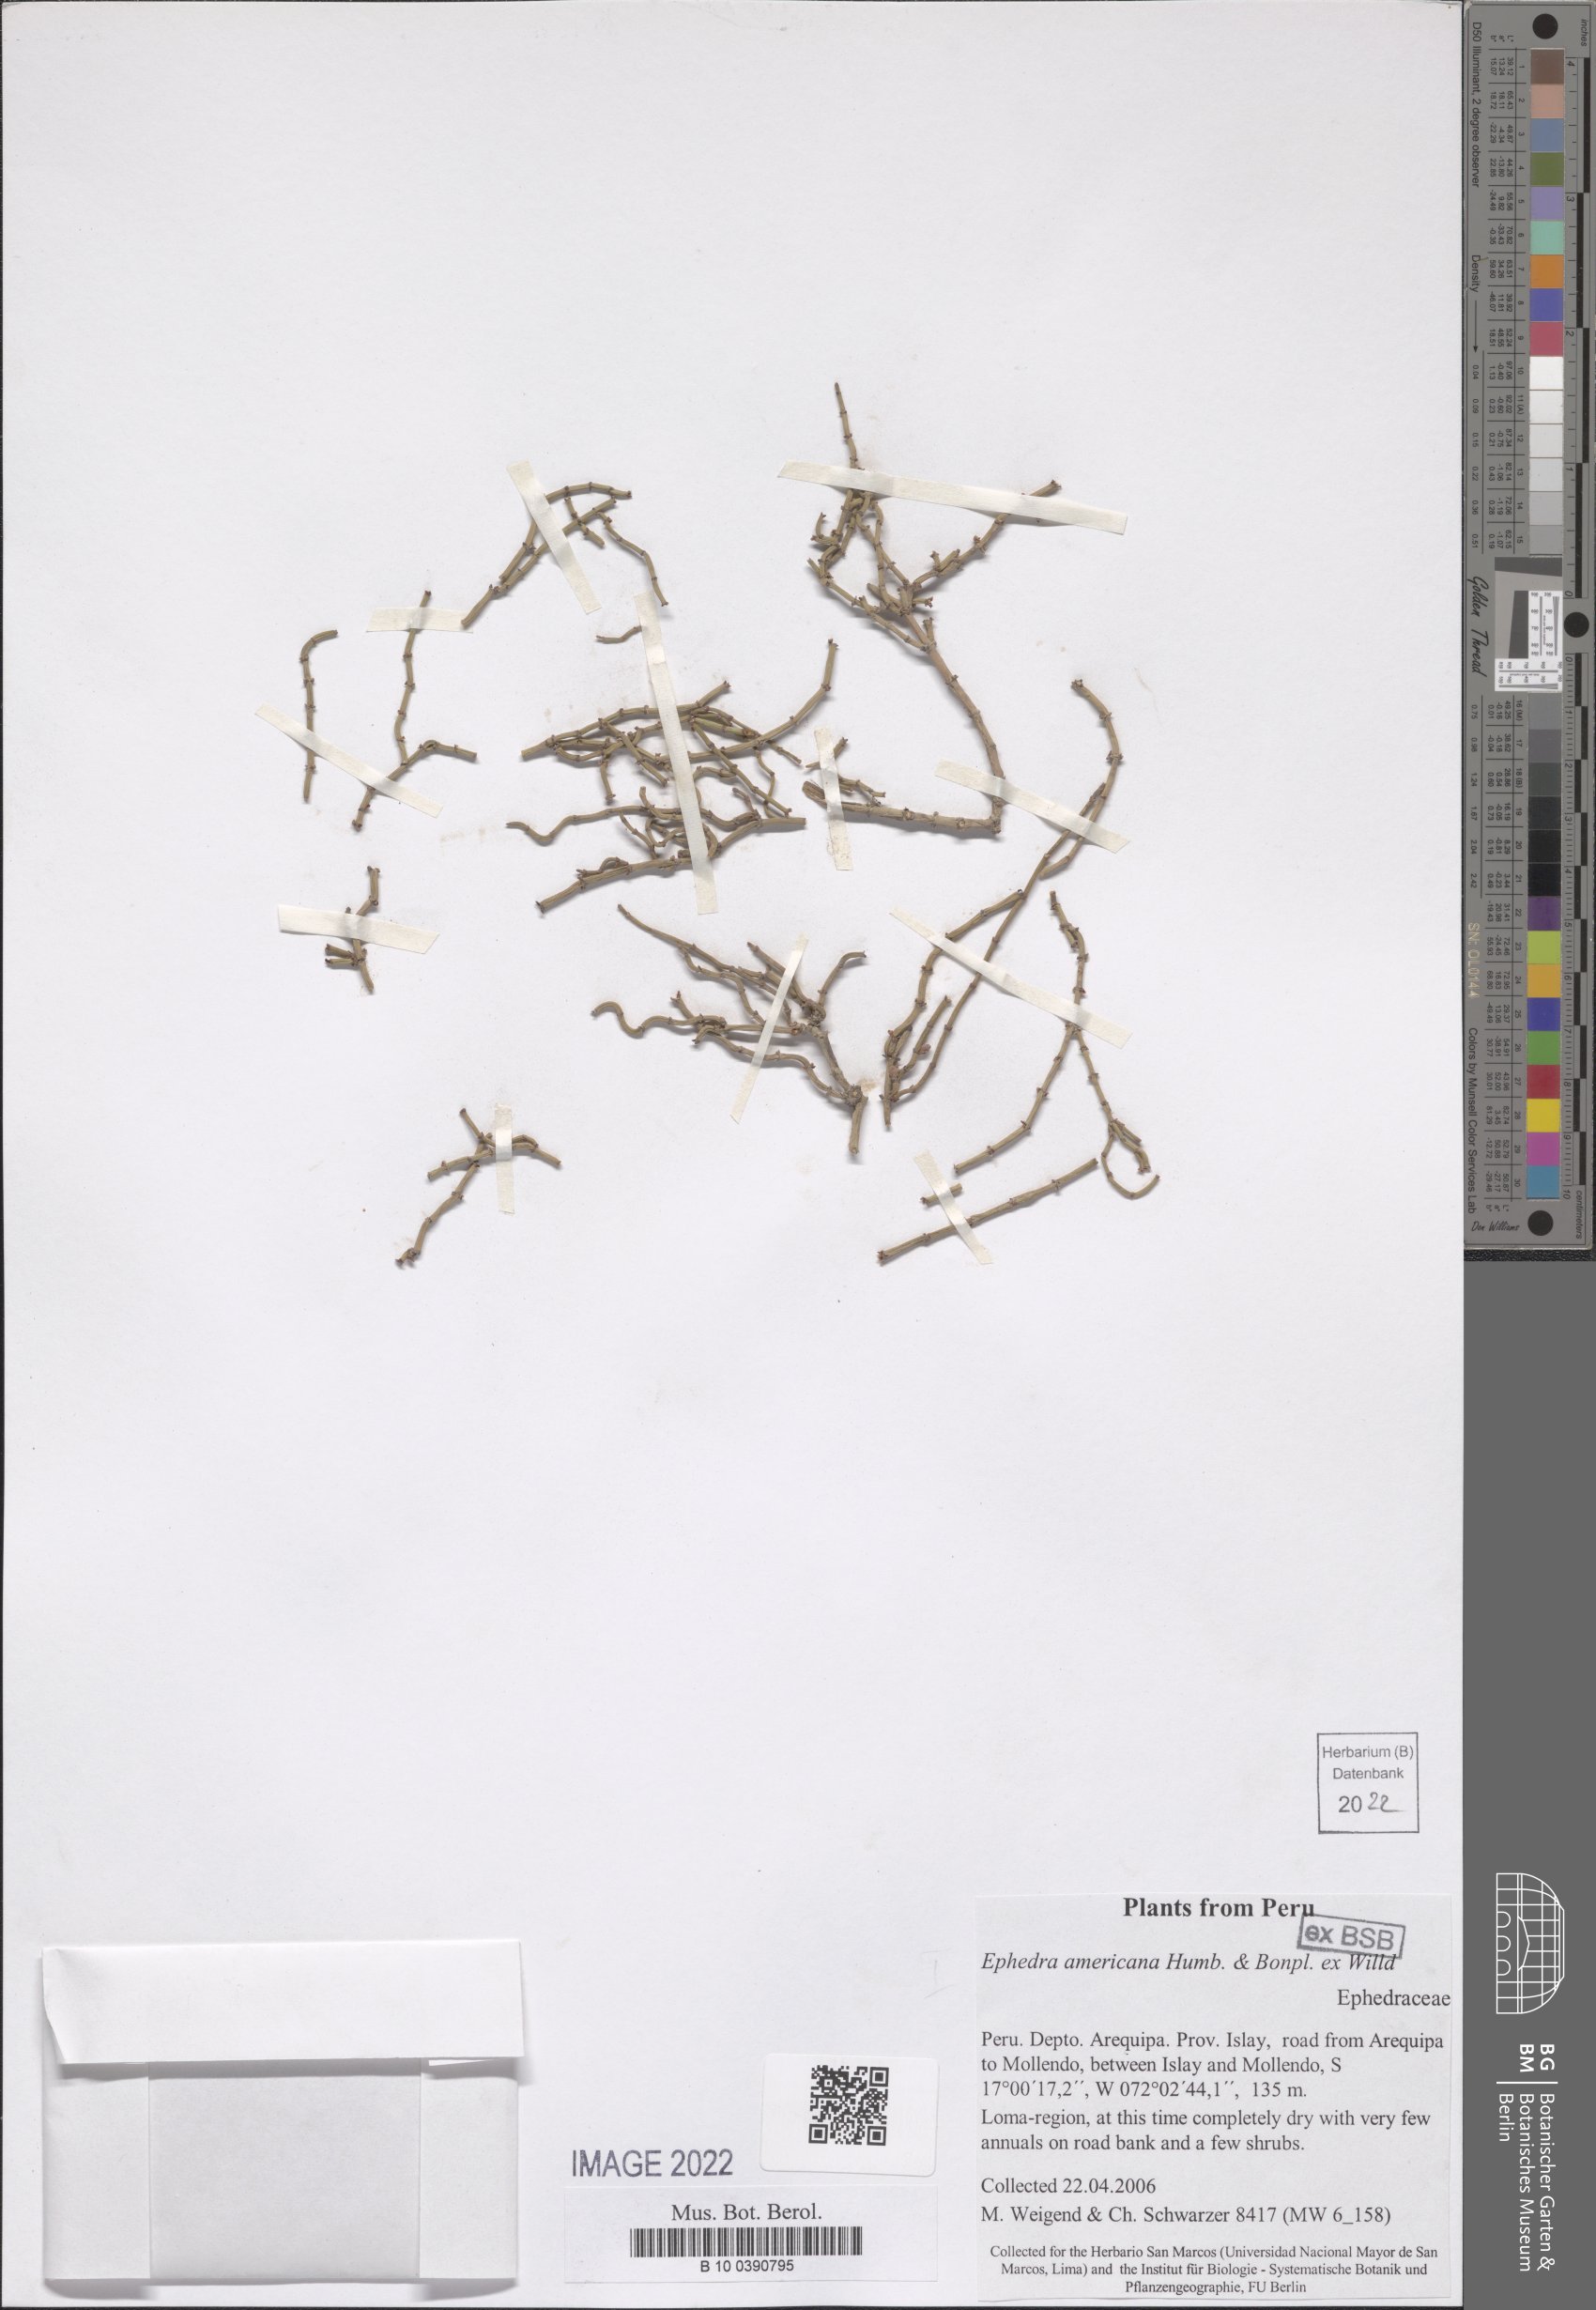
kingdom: Plantae
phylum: Tracheophyta
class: Gnetopsida
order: Ephedrales
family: Ephedraceae
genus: Ephedra
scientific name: Ephedra americana
